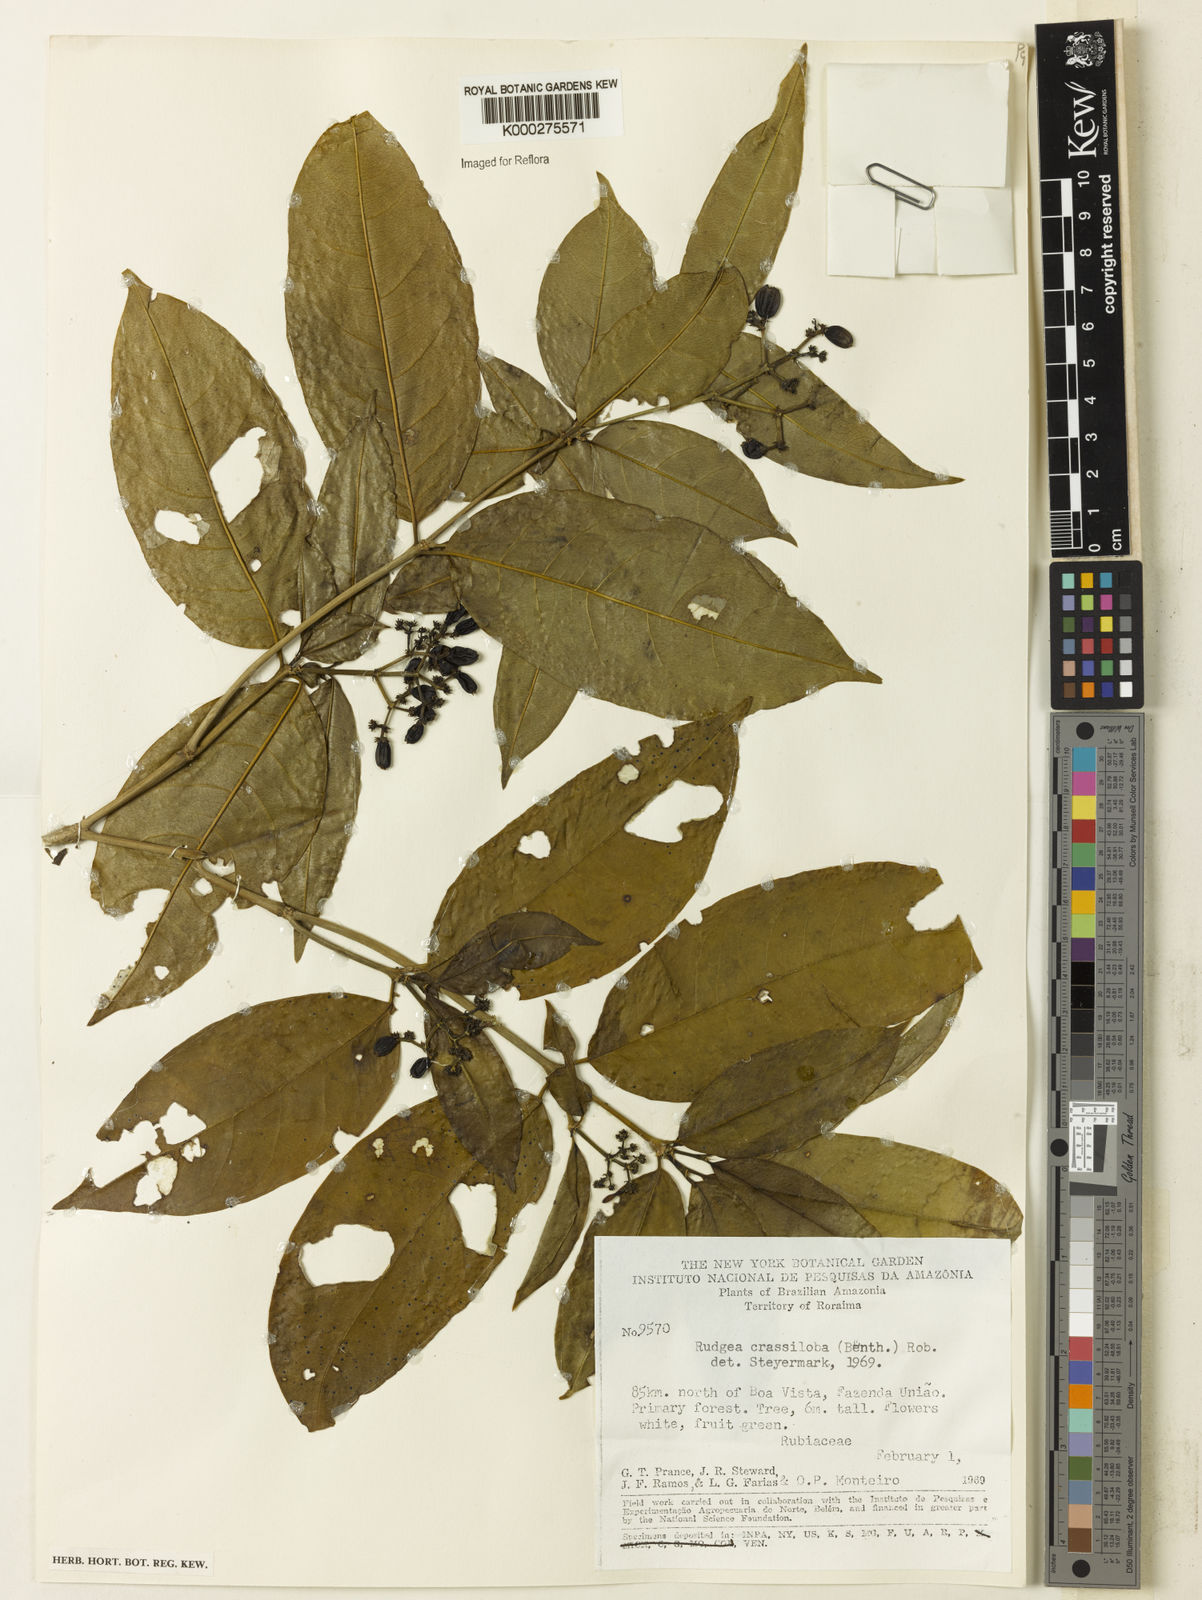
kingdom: Plantae
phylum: Tracheophyta
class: Magnoliopsida
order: Gentianales
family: Rubiaceae
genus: Rudgea
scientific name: Rudgea crassiloba
